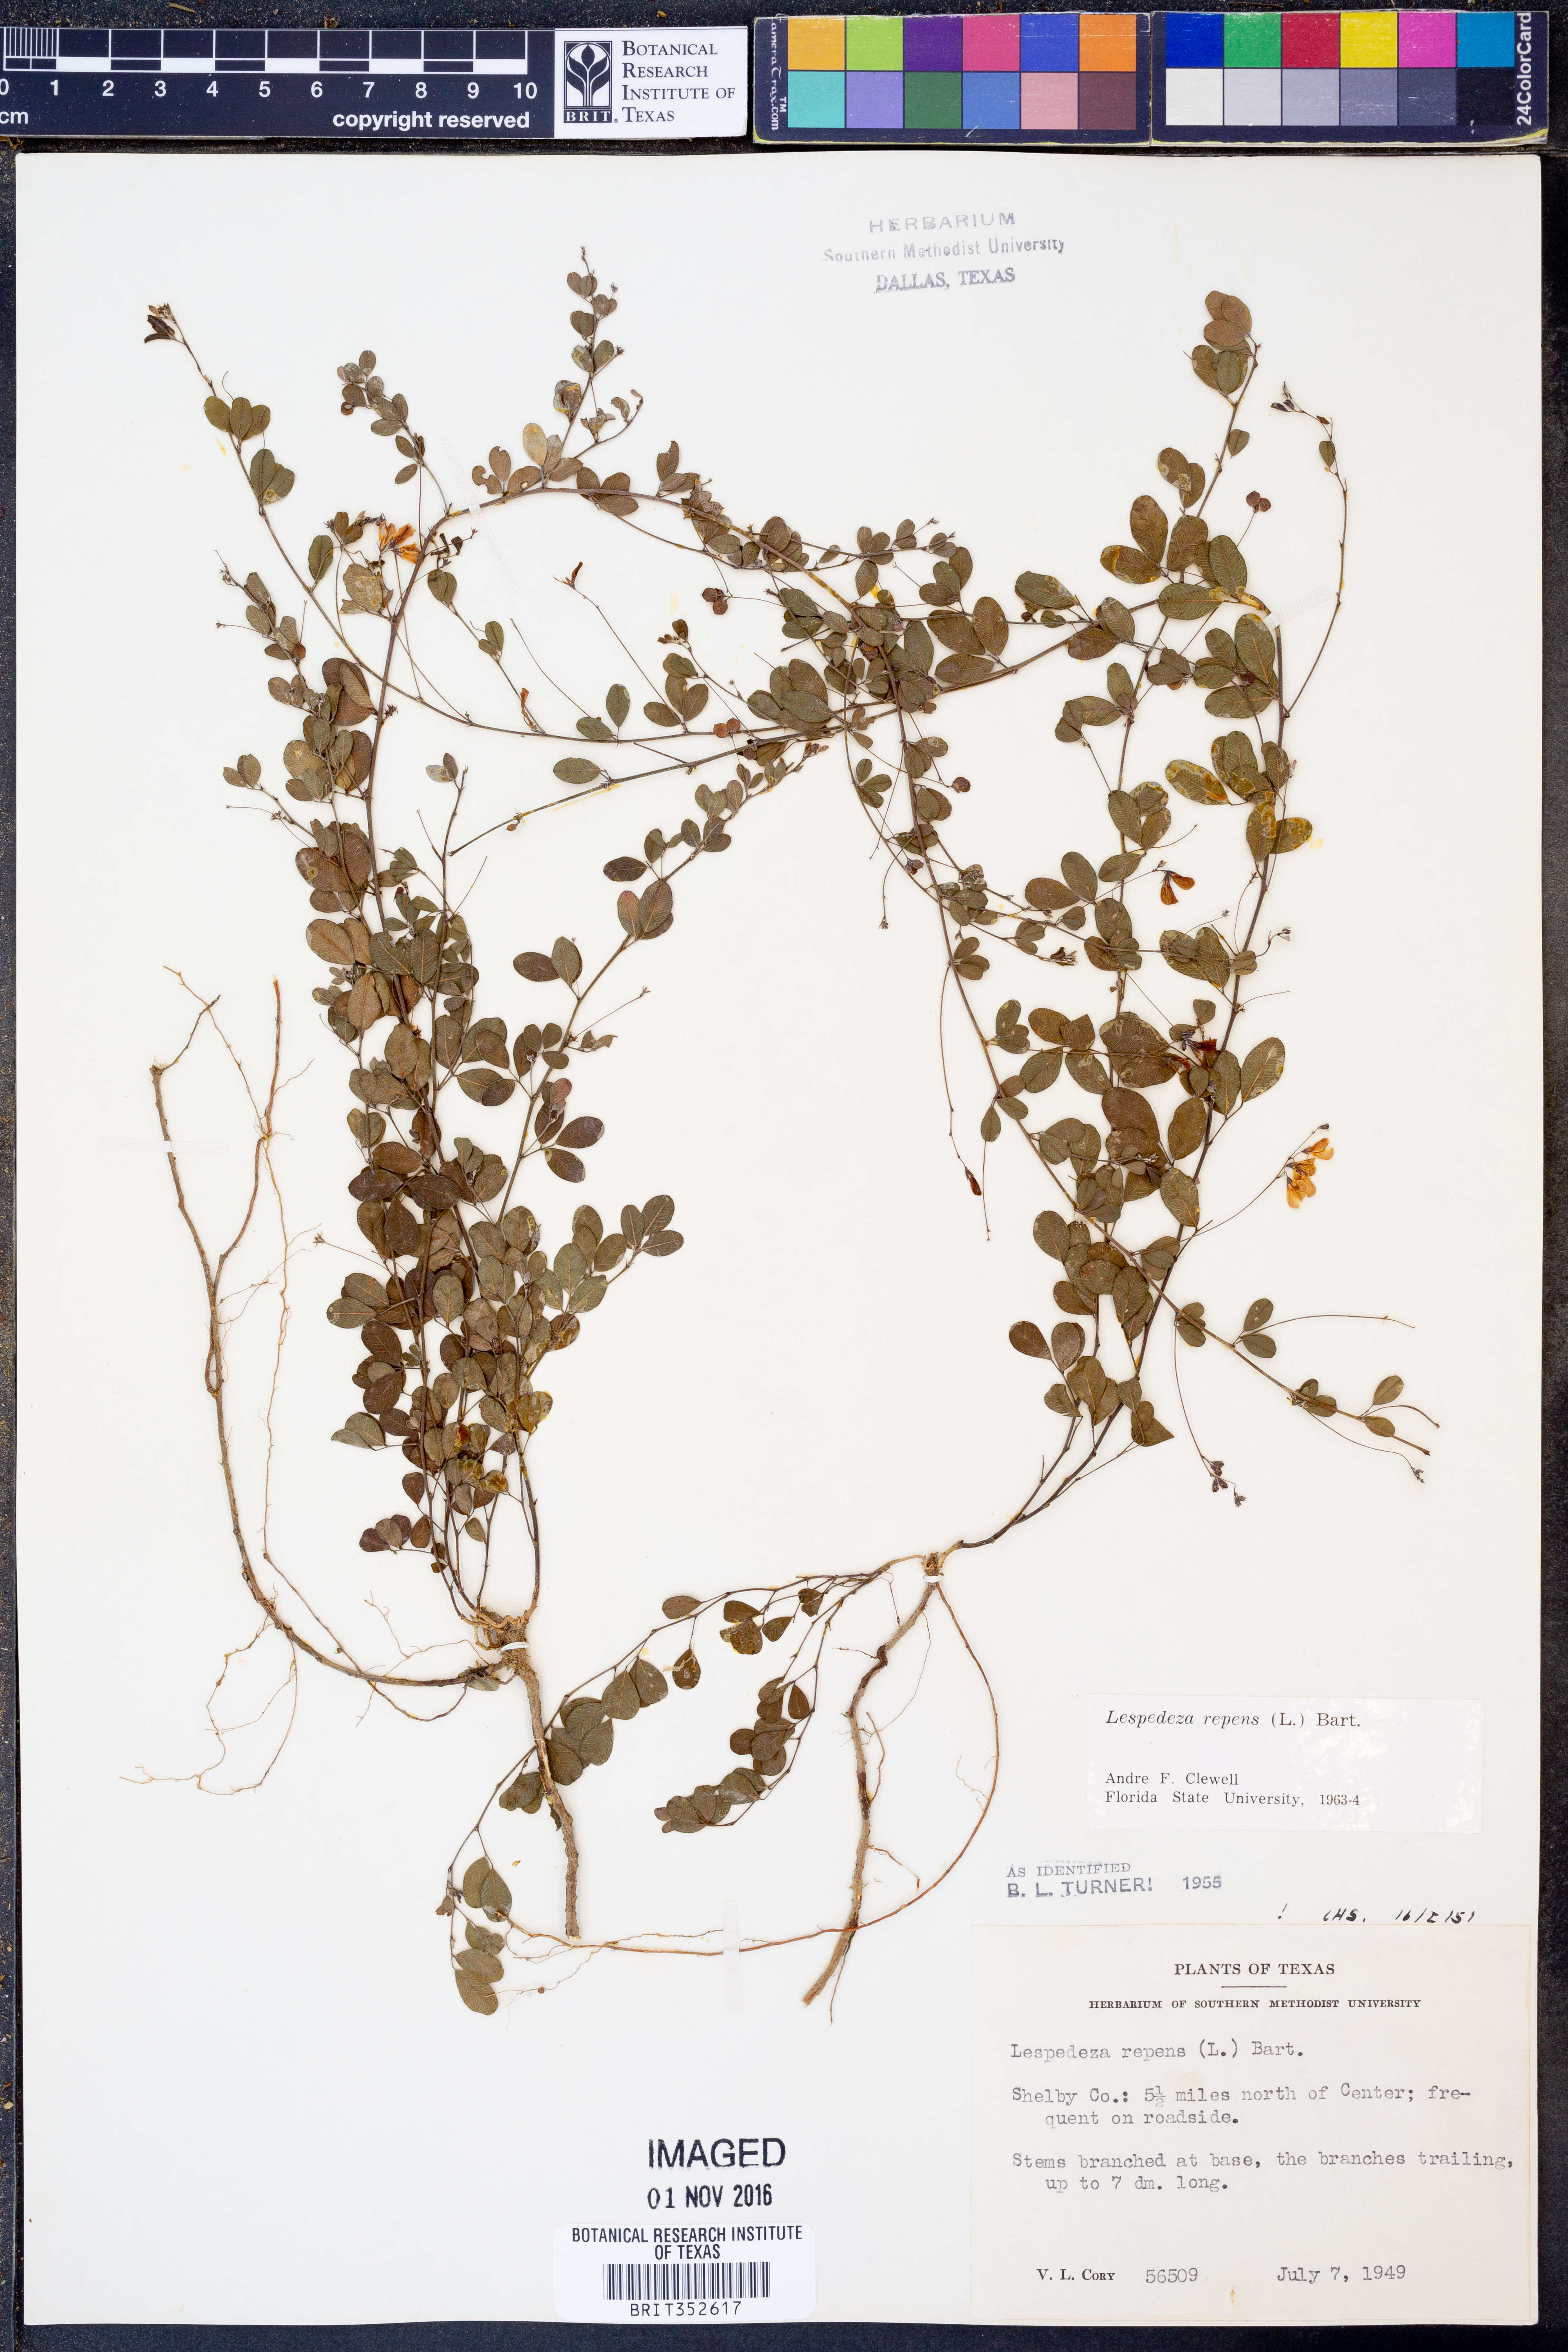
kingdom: Plantae
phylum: Tracheophyta
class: Magnoliopsida
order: Fabales
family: Fabaceae
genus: Lespedeza
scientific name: Lespedeza repens
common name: Creeping bush-clover
